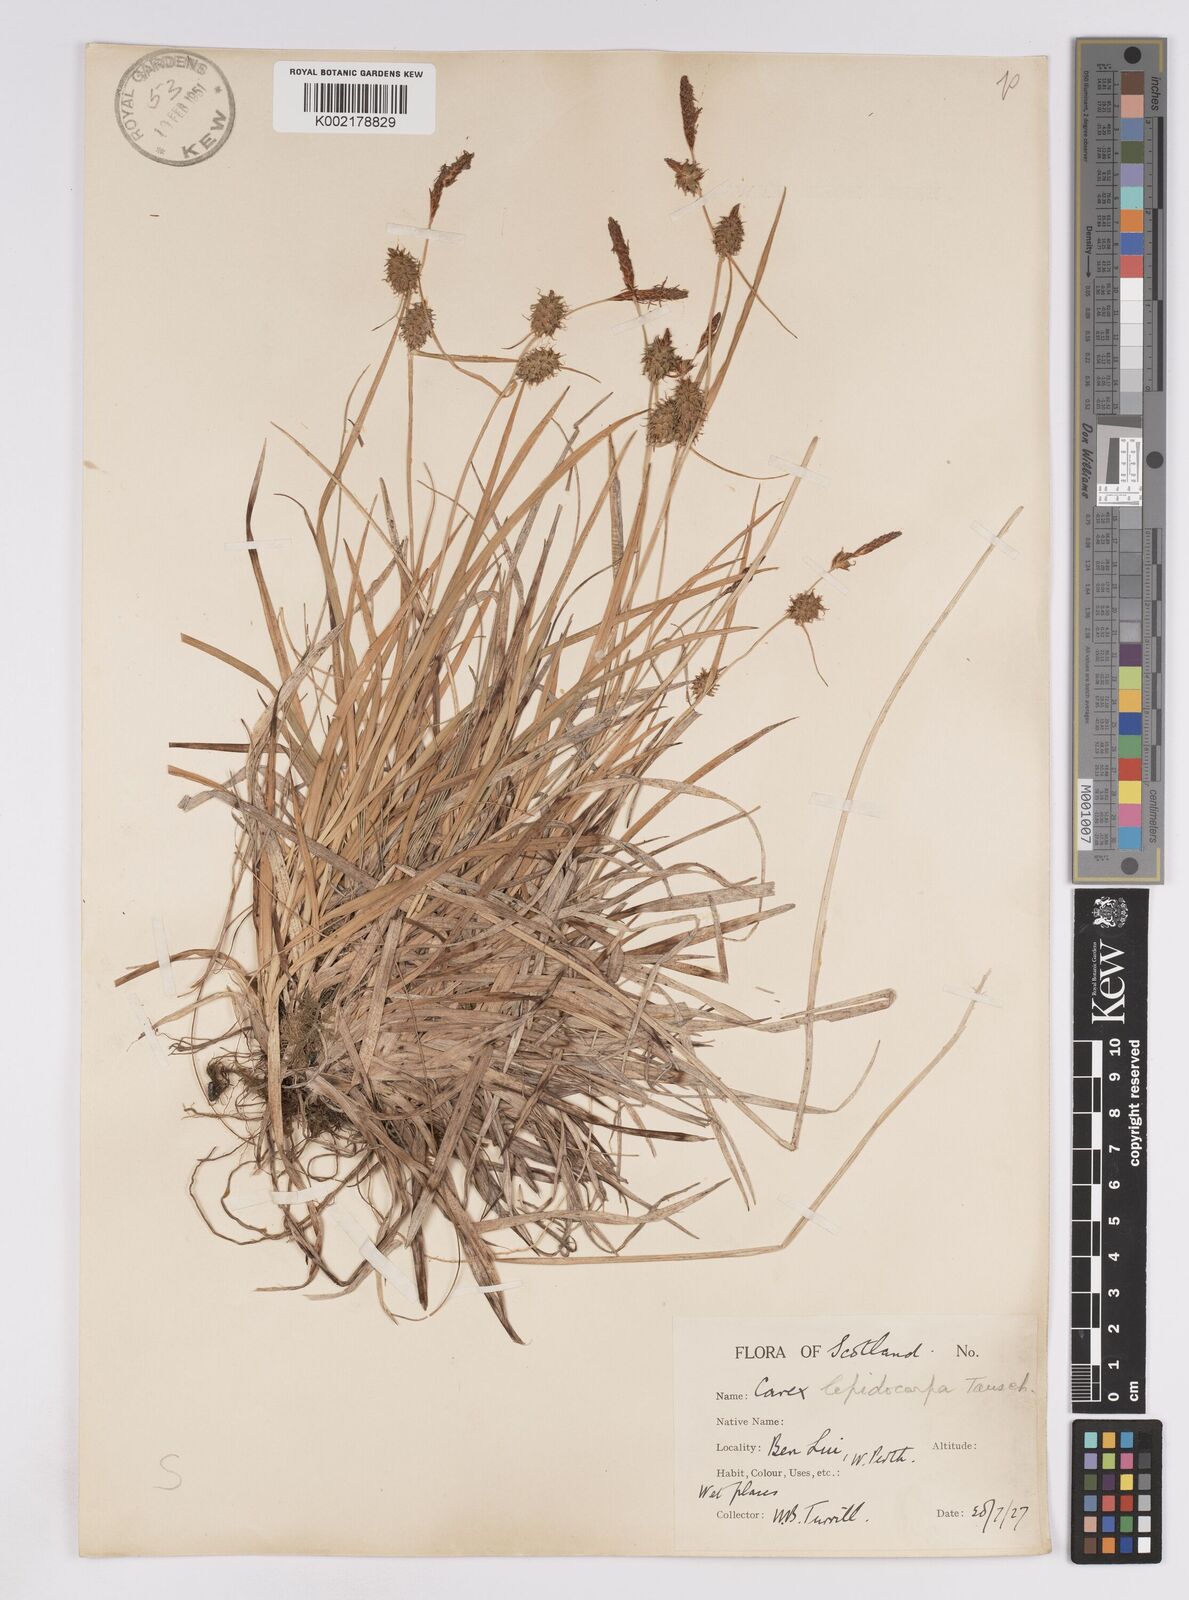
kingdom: Plantae
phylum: Tracheophyta
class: Liliopsida
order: Poales
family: Cyperaceae
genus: Carex
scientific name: Carex lepidocarpa
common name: Long-stalked yellow-sedge
